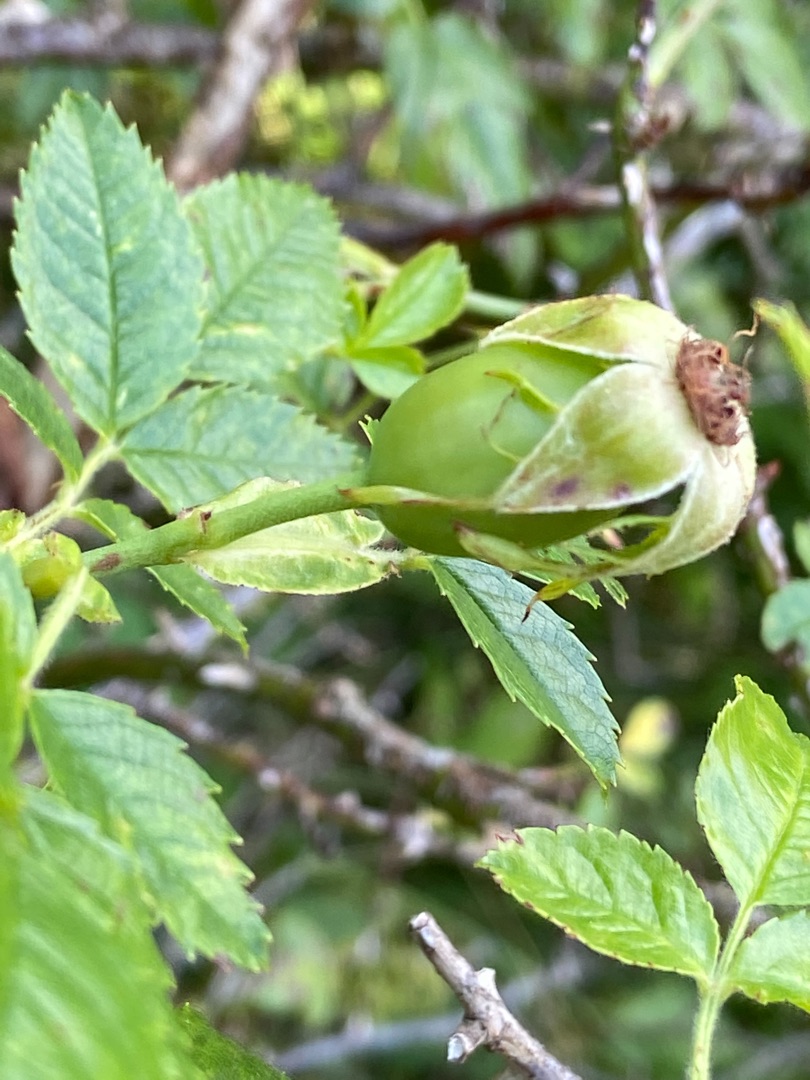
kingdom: Plantae
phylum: Tracheophyta
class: Magnoliopsida
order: Rosales
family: Rosaceae
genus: Rosa
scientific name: Rosa canina
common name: Glat hunde-rose
